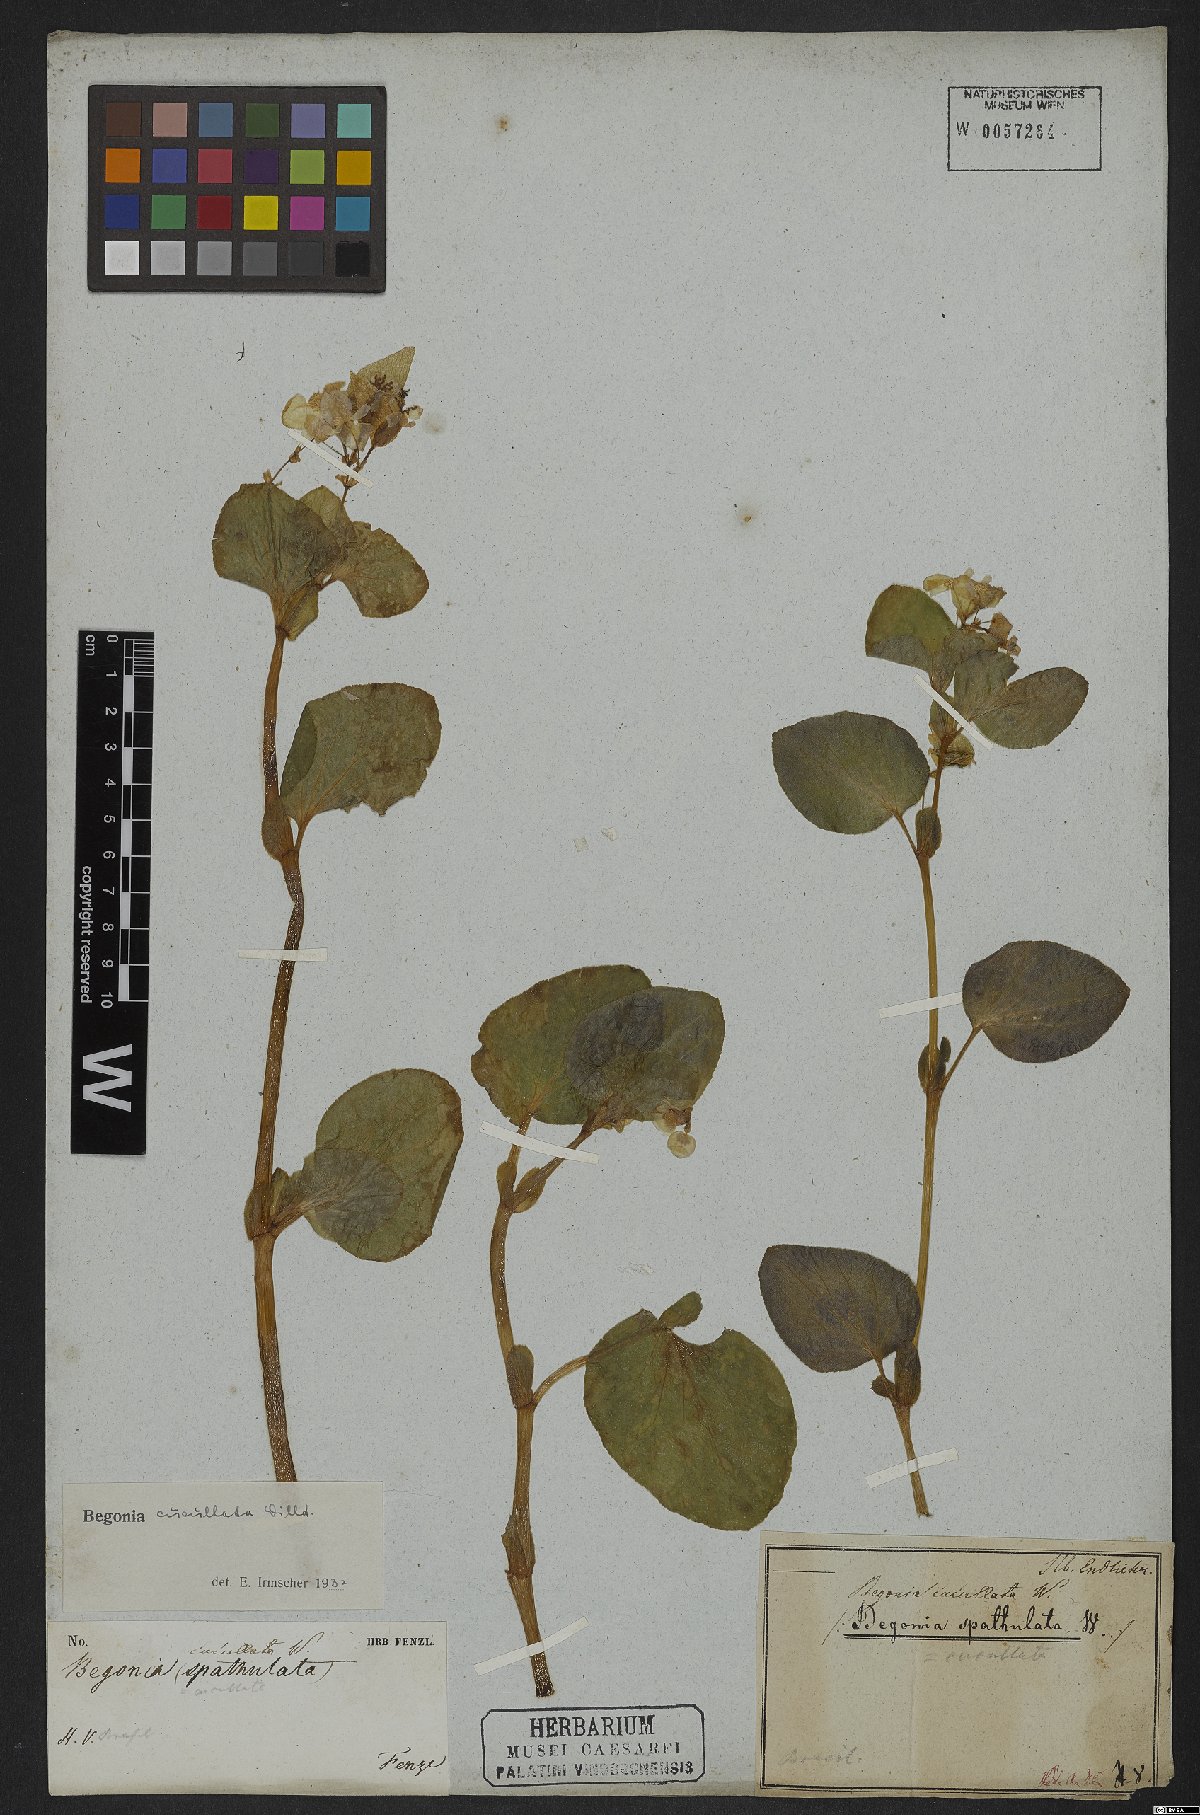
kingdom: Plantae
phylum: Tracheophyta
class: Magnoliopsida
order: Cucurbitales
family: Begoniaceae
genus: Begonia
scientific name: Begonia cucullata
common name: Clubbed begonia
